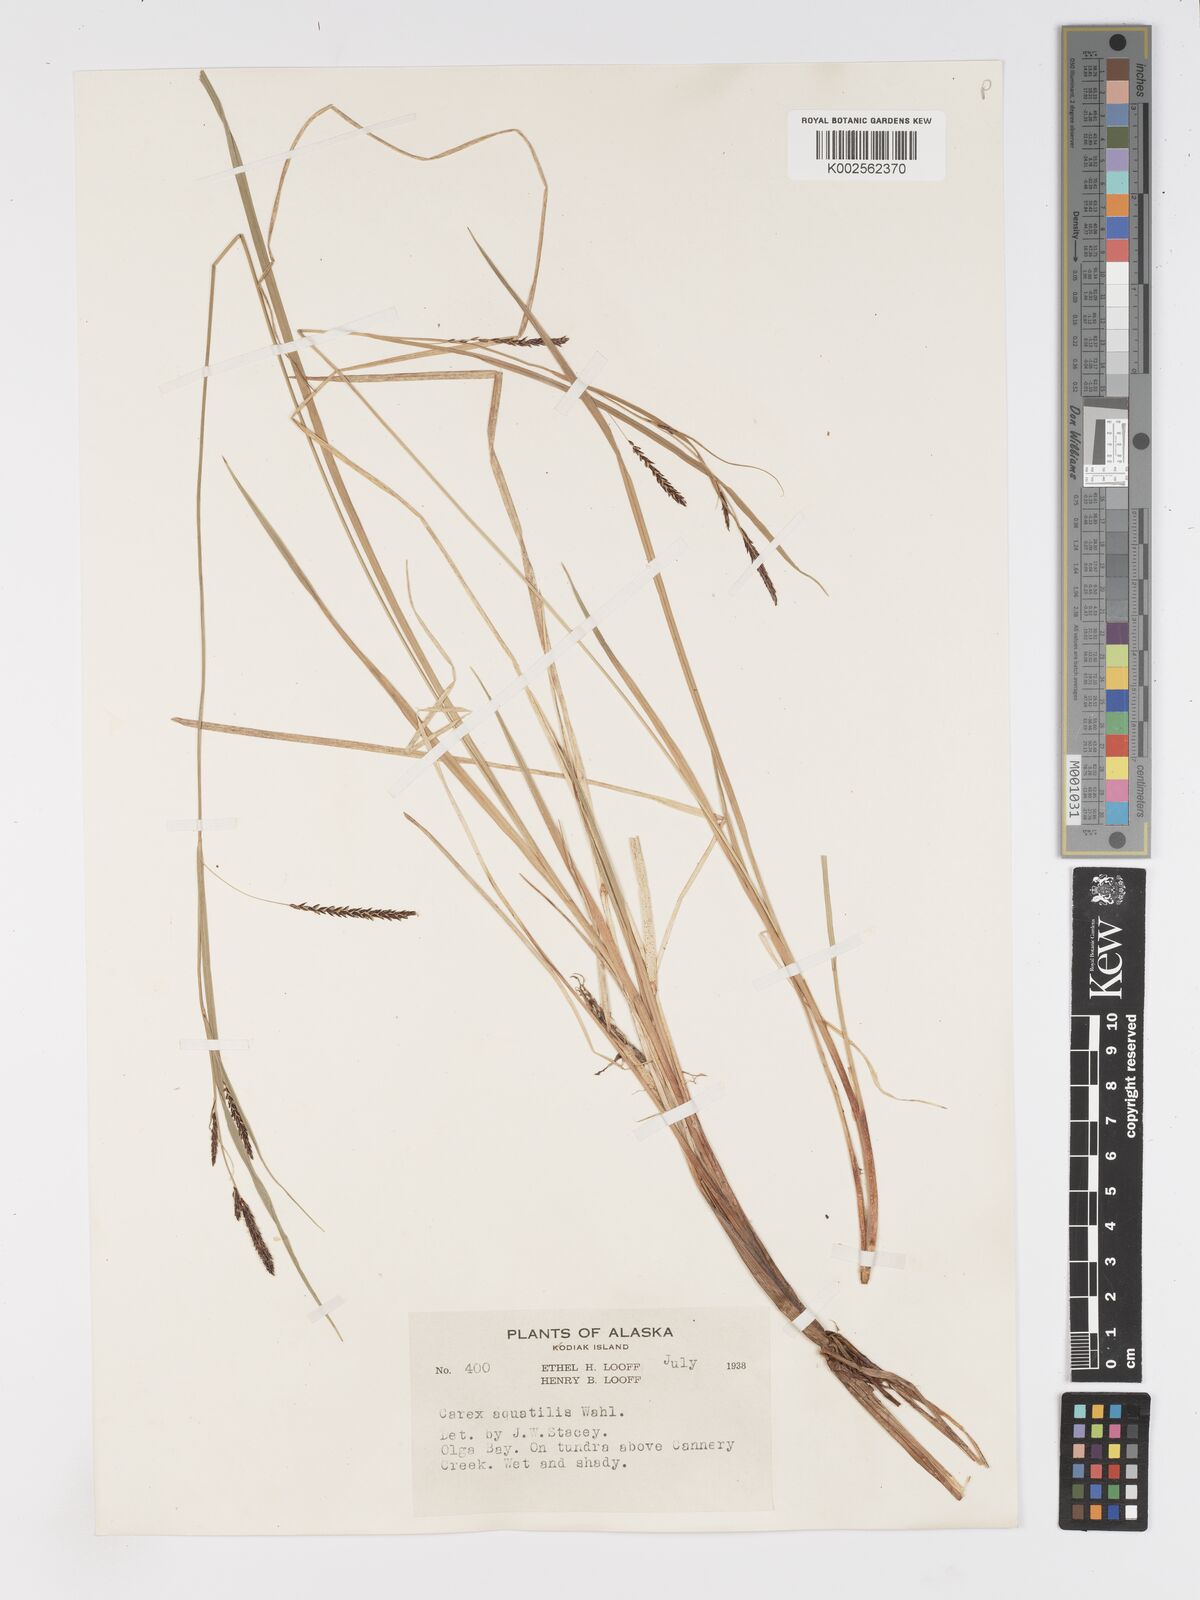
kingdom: Plantae
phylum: Tracheophyta
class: Liliopsida
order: Poales
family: Cyperaceae
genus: Carex
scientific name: Carex aquatilis
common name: Water sedge
